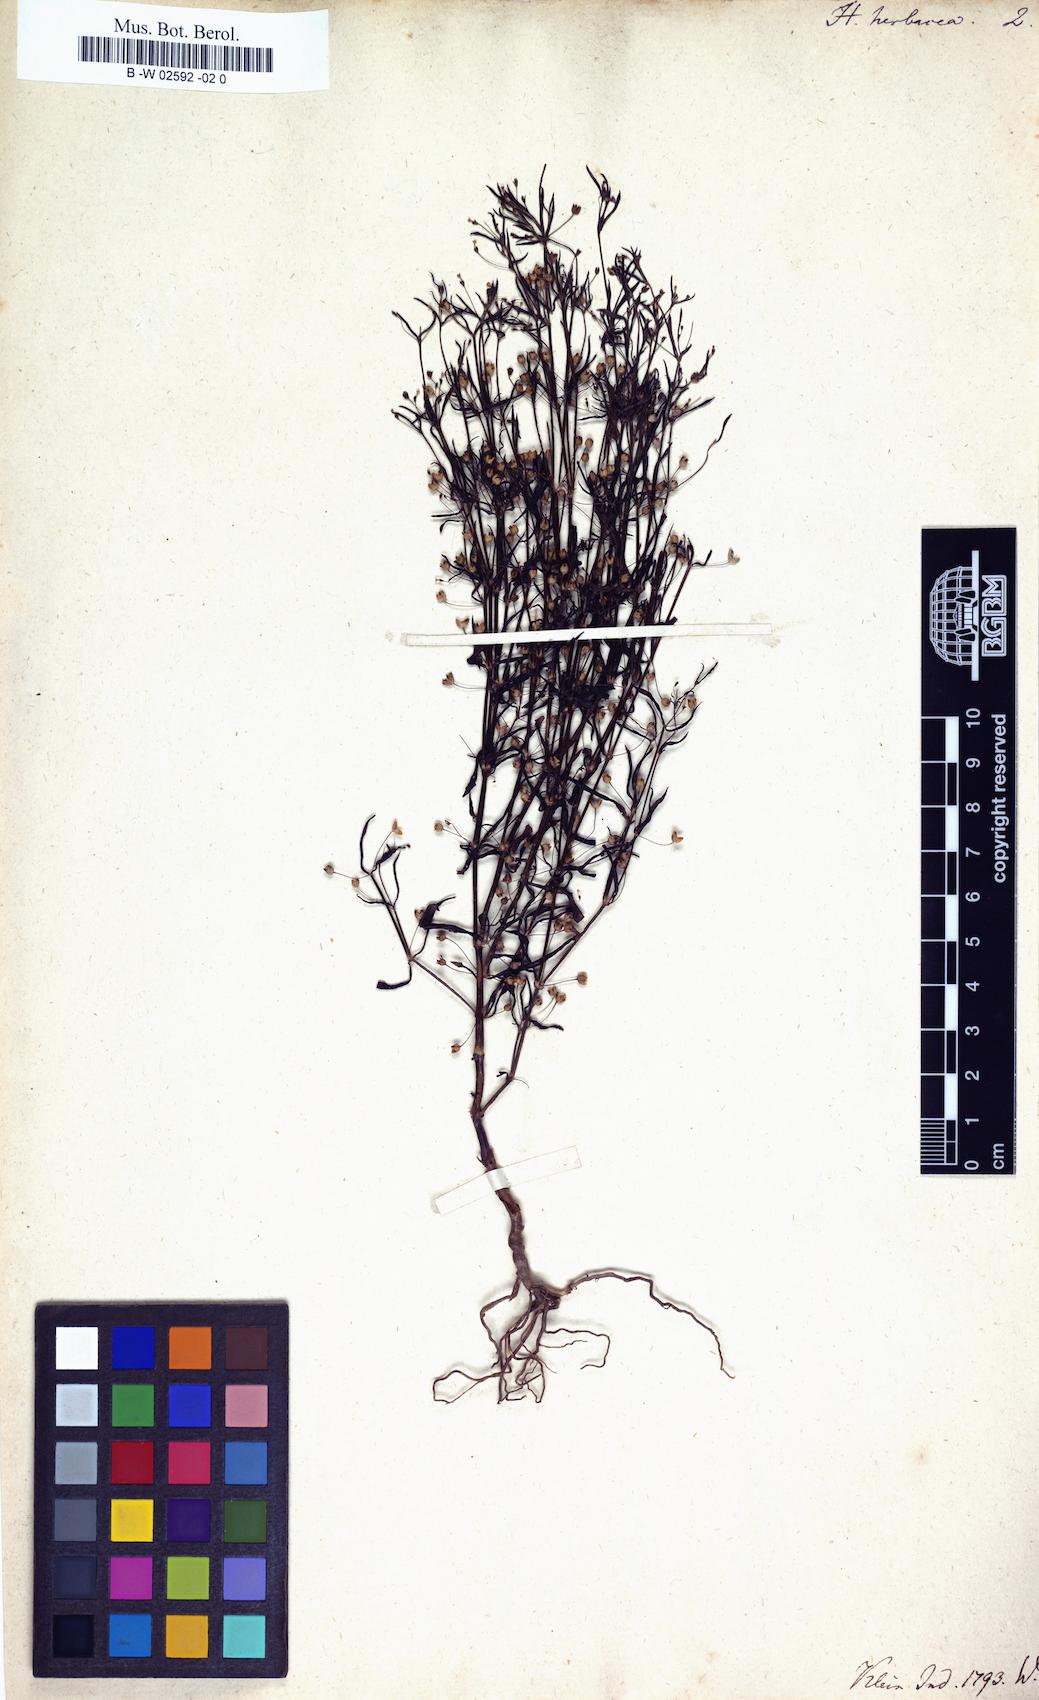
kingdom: Plantae
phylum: Tracheophyta
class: Magnoliopsida
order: Gentianales
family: Rubiaceae
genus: Oldenlandia
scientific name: Oldenlandia herbacea
